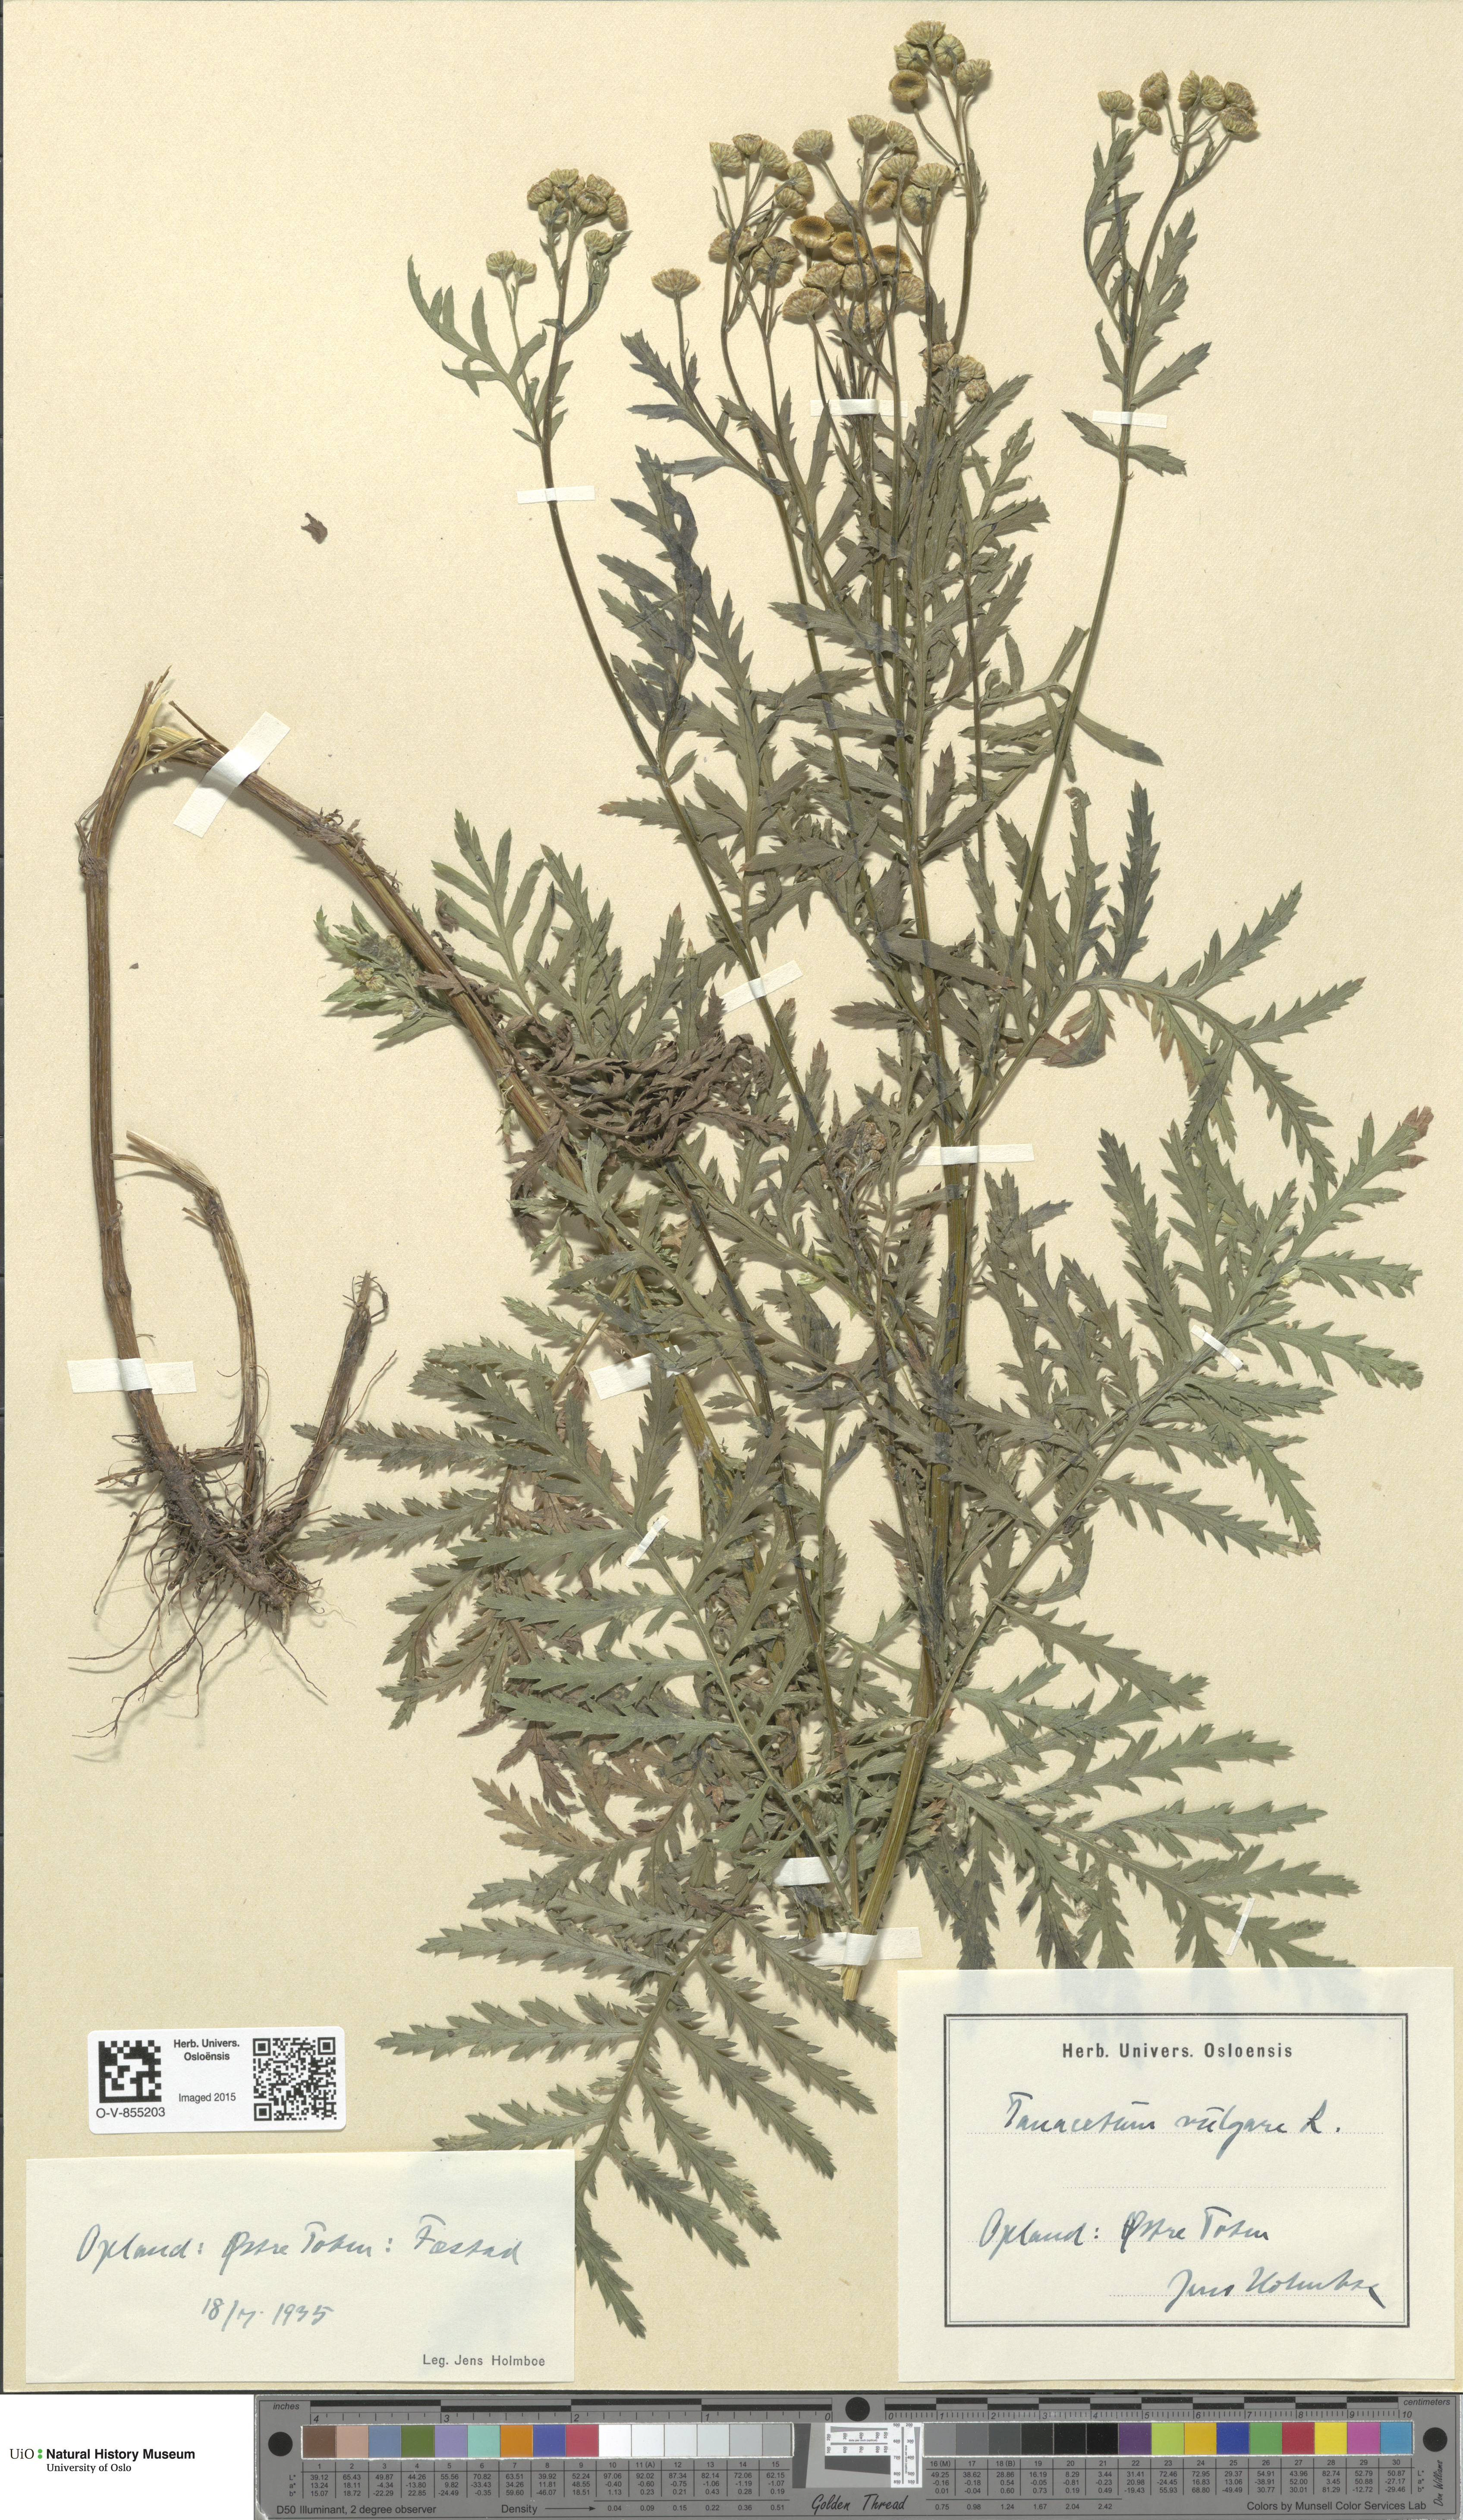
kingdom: Plantae
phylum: Tracheophyta
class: Magnoliopsida
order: Asterales
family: Asteraceae
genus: Tanacetum
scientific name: Tanacetum vulgare
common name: Common tansy
